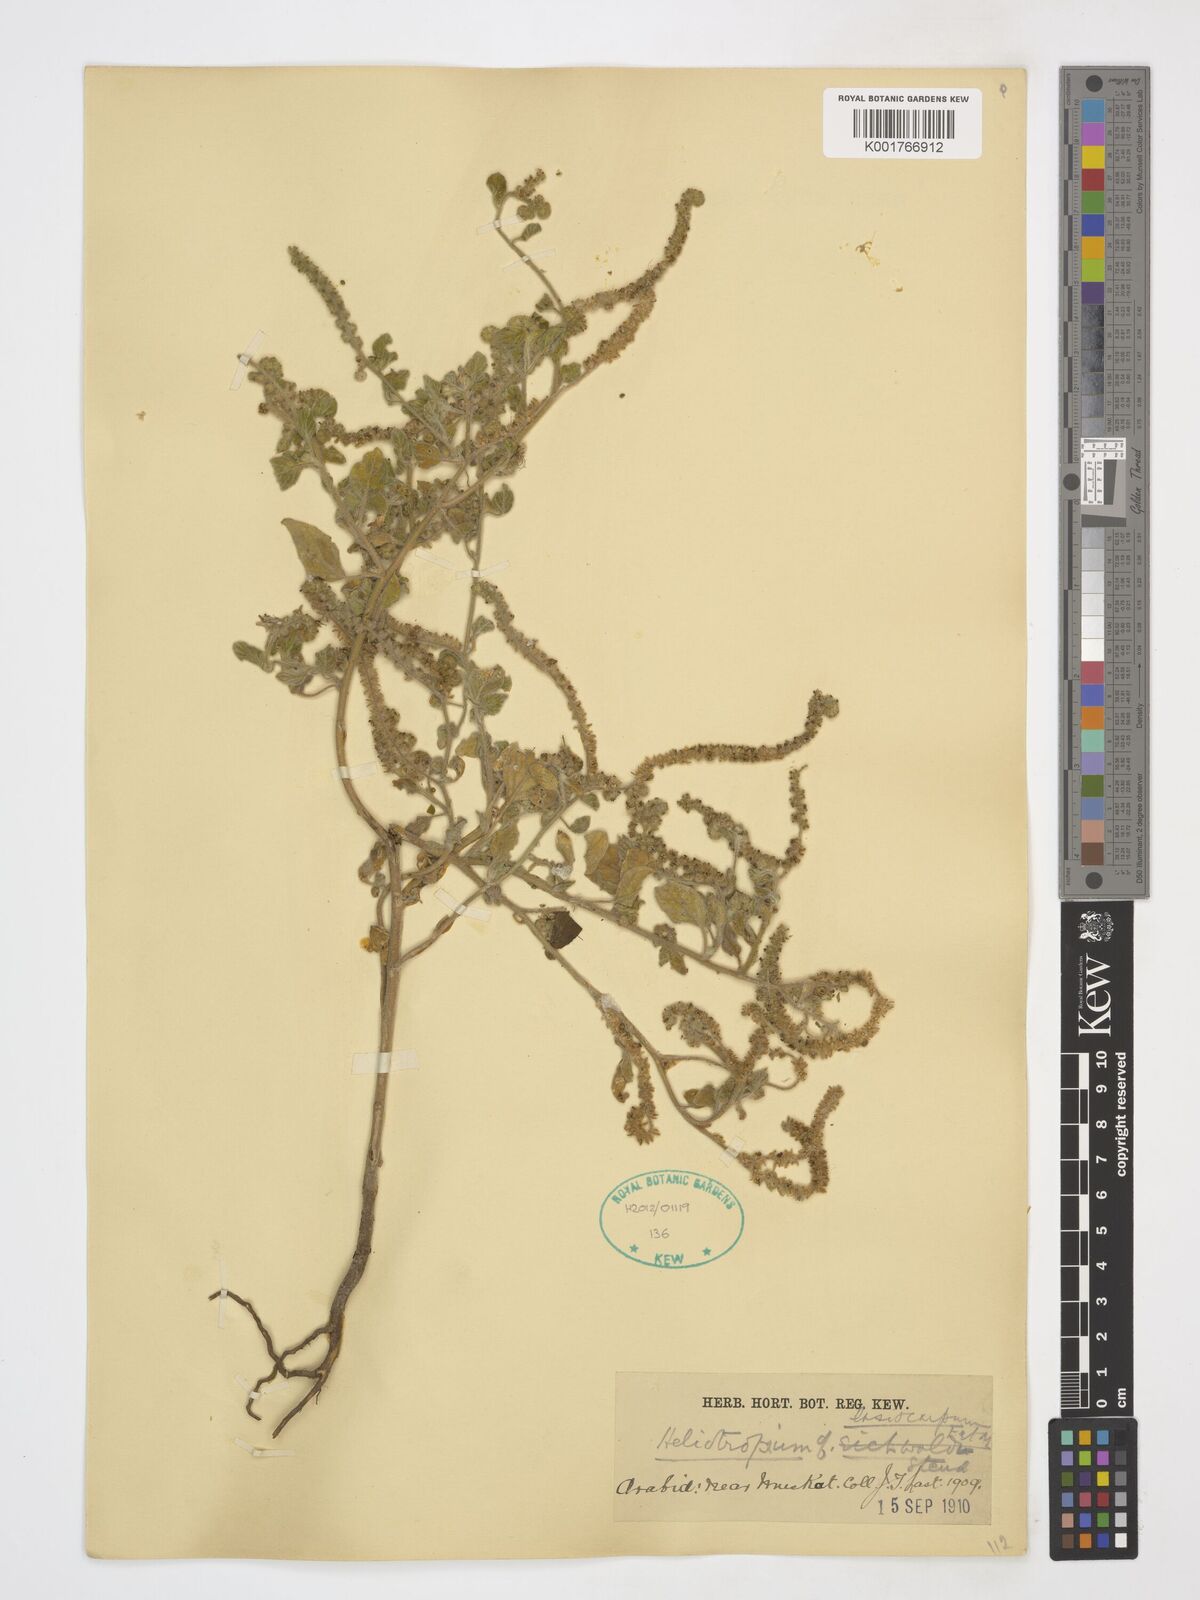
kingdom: Plantae
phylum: Tracheophyta
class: Magnoliopsida
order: Boraginales
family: Heliotropiaceae
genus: Heliotropium
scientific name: Heliotropium lasiocarpum
